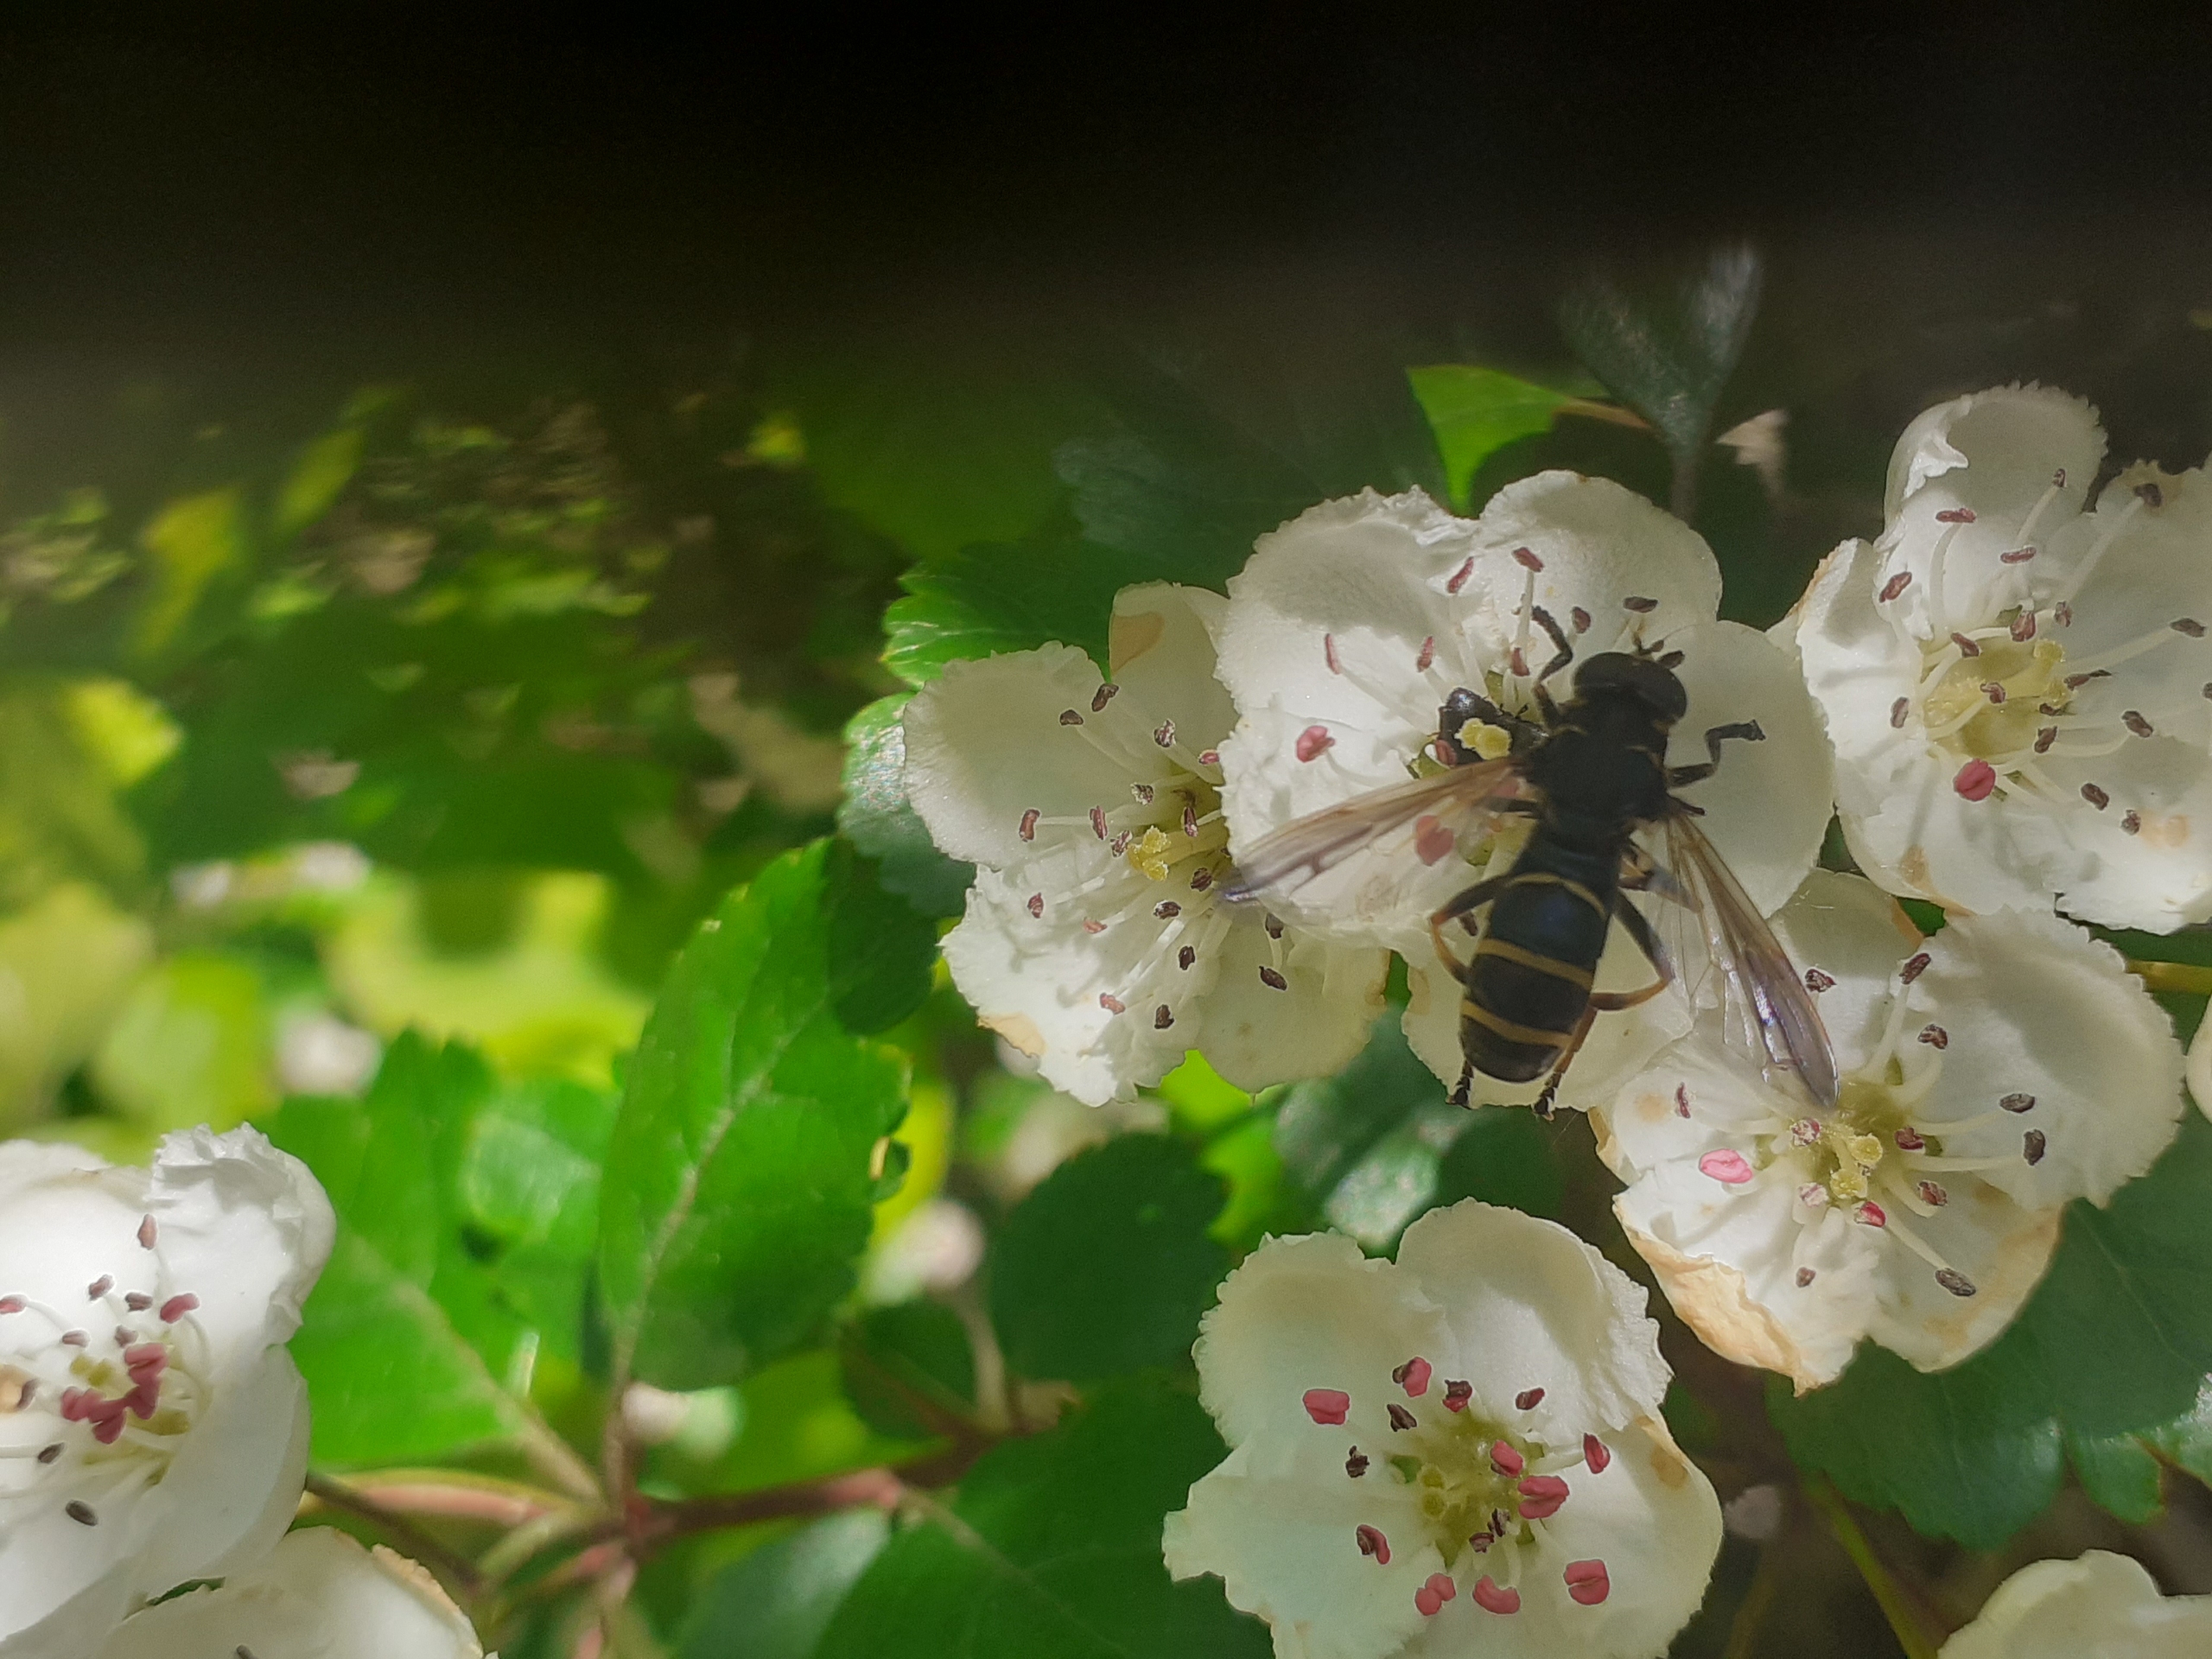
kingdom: Animalia
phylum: Arthropoda
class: Insecta
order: Diptera
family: Syrphidae
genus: Temnostoma
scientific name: Temnostoma bombylans
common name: Sort vedsvirreflue
